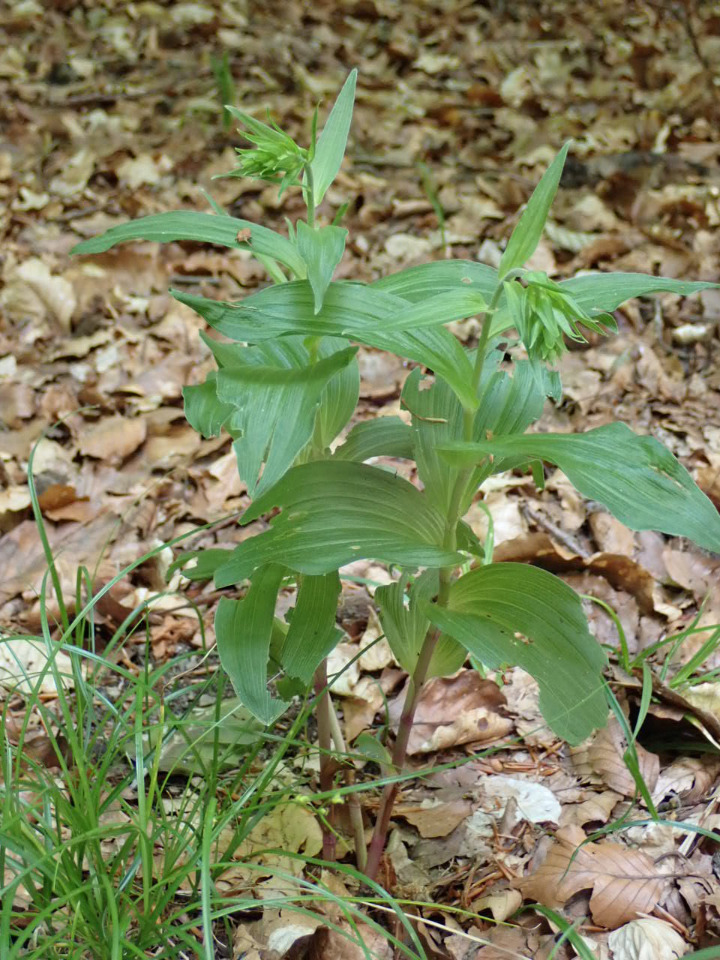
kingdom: Plantae
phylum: Tracheophyta
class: Liliopsida
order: Asparagales
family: Orchidaceae
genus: Epipactis
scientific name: Epipactis helleborine
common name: Skov-hullæbe
